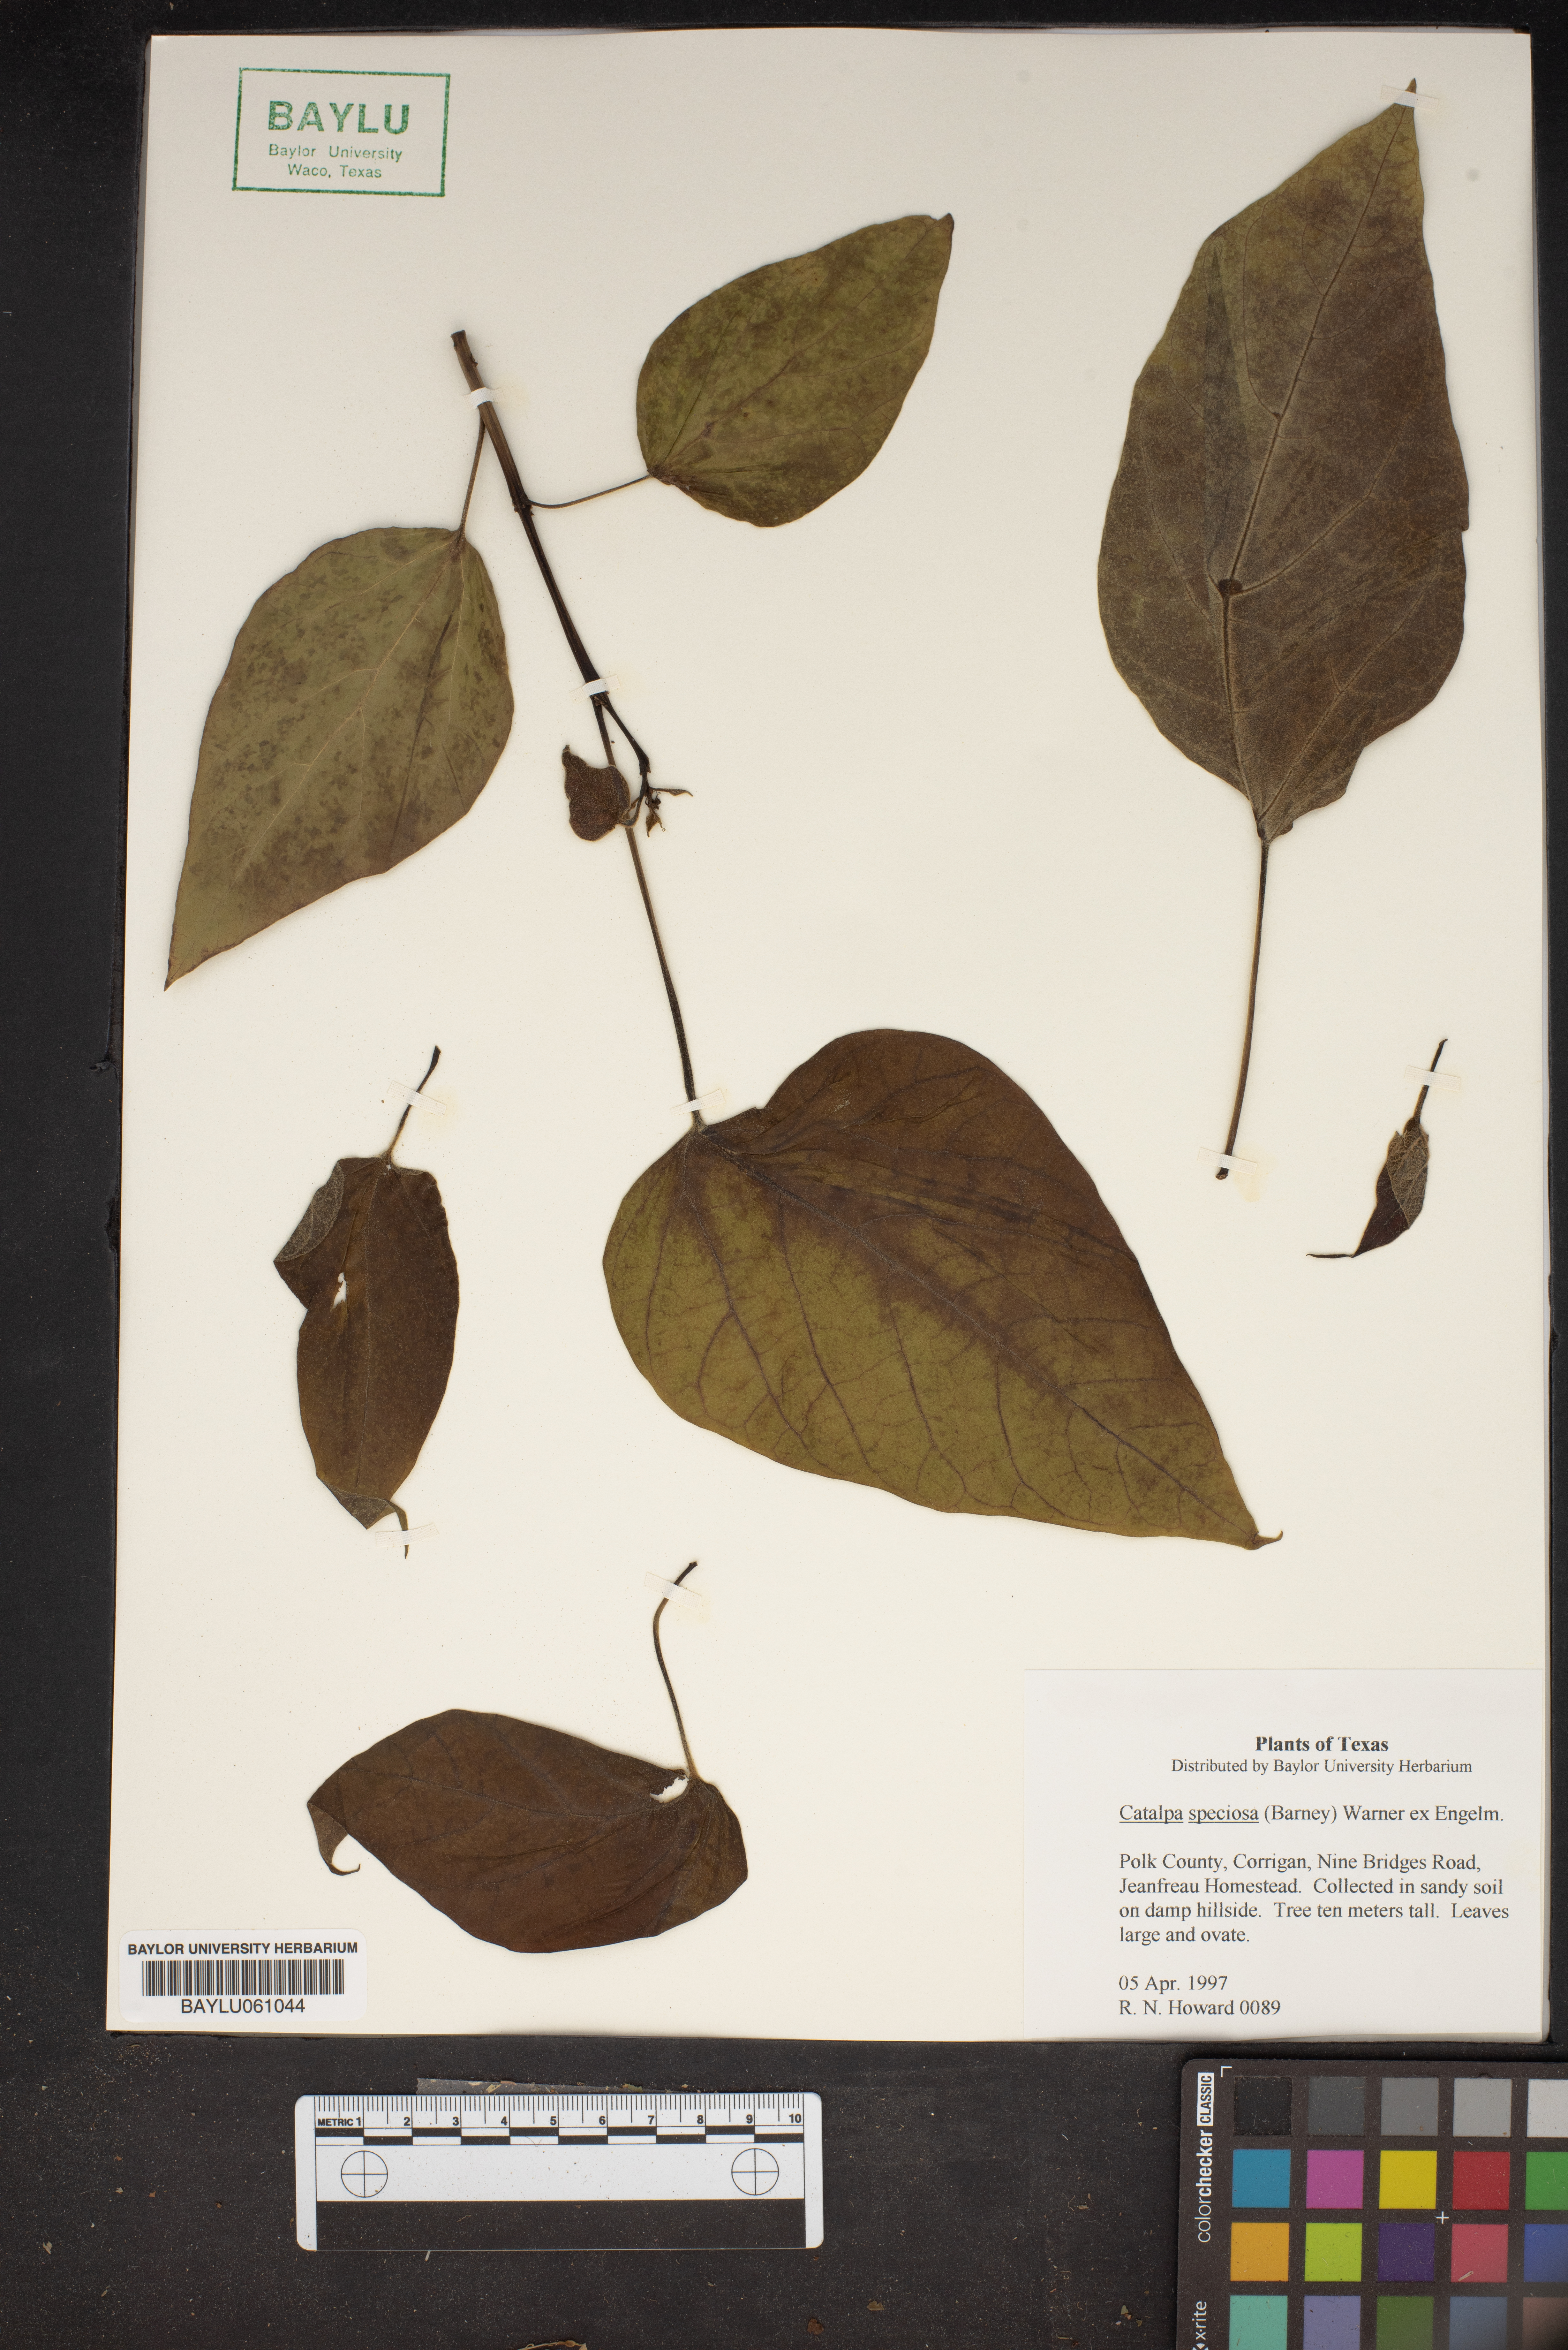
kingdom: Plantae
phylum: Tracheophyta
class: Magnoliopsida
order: Lamiales
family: Bignoniaceae
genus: Catalpa
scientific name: Catalpa speciosa
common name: Northern catalpa
